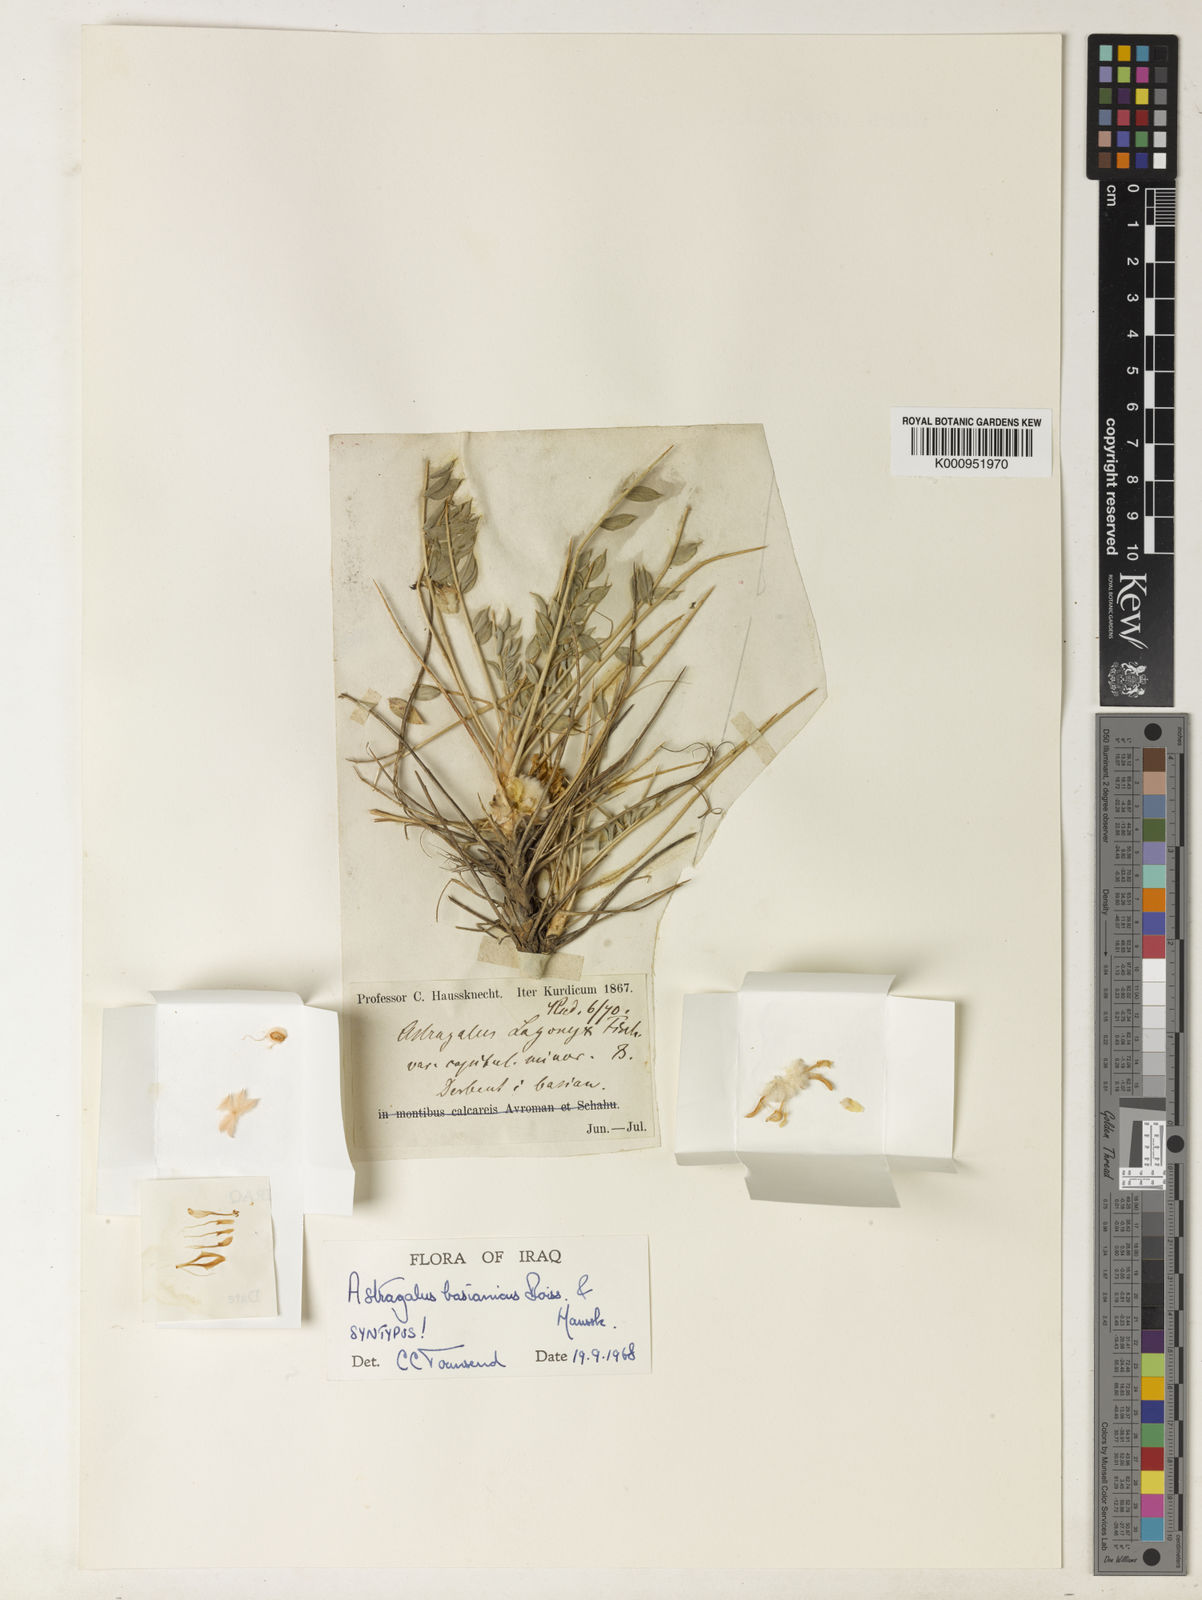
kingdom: Plantae
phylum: Tracheophyta
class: Magnoliopsida
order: Fabales
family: Fabaceae
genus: Astragalus
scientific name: Astragalus amblolepis
